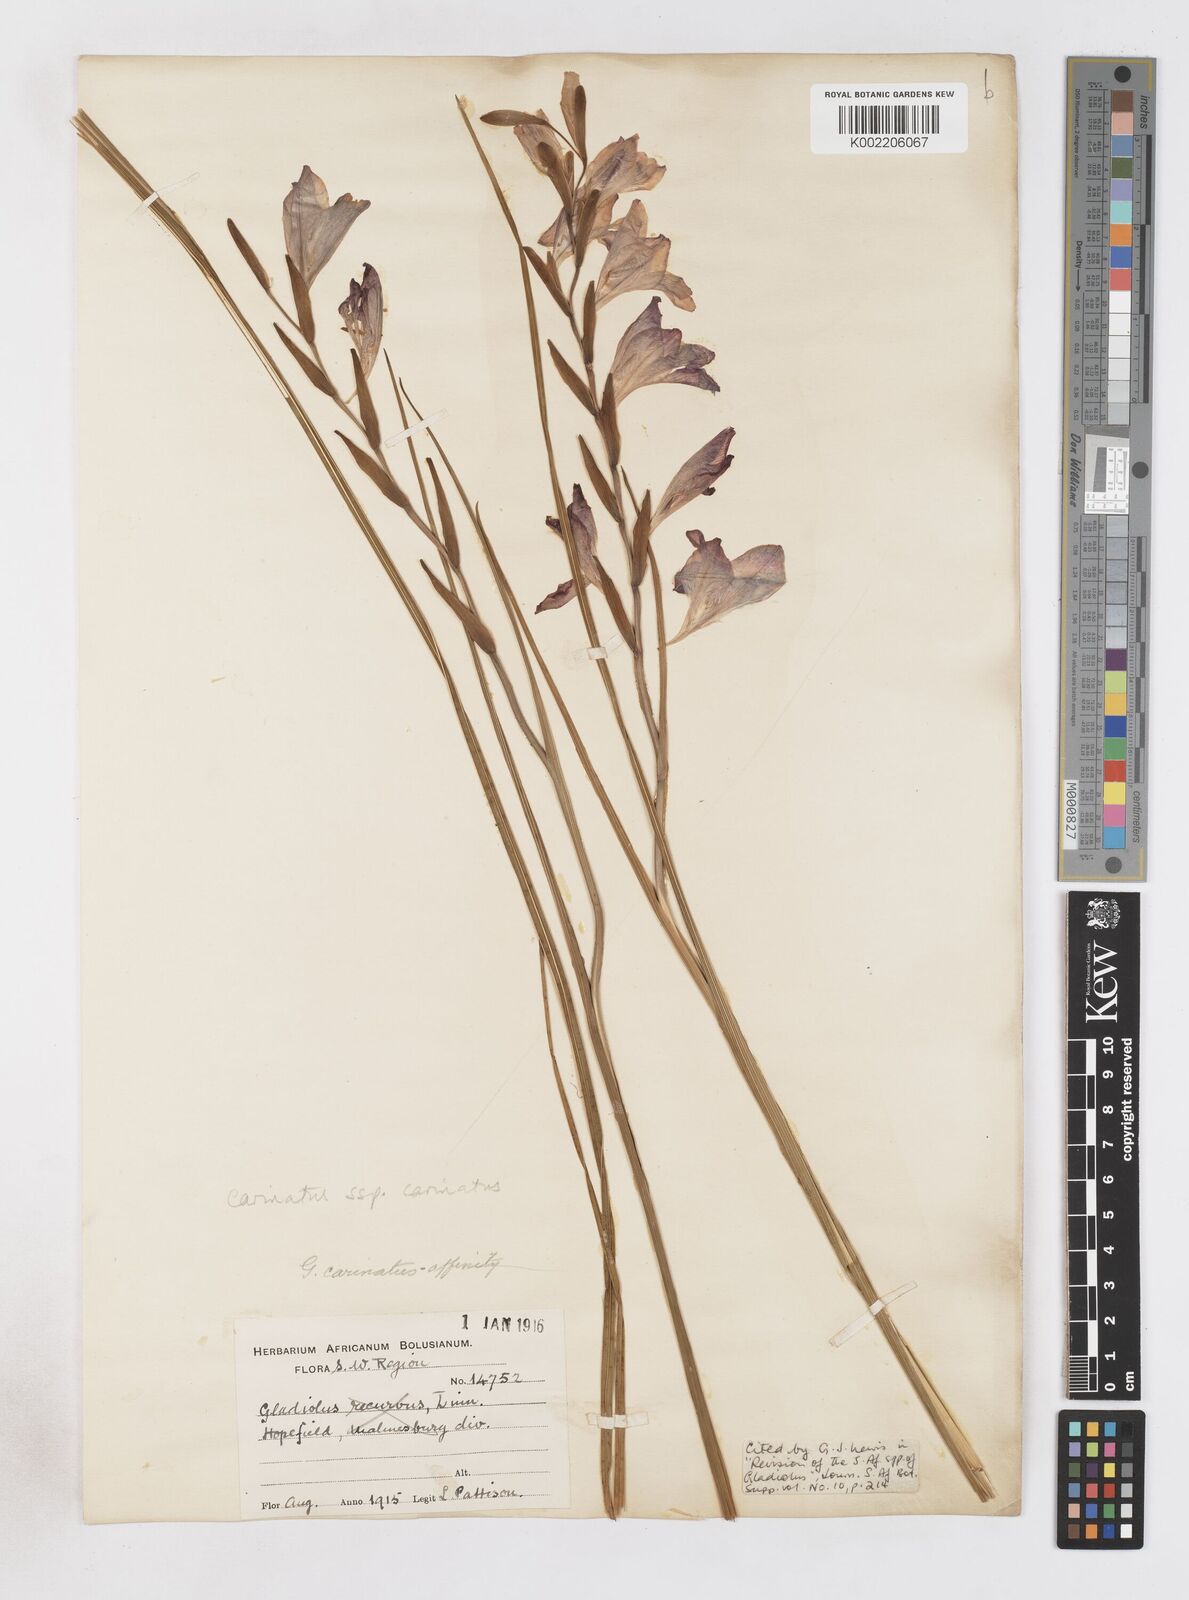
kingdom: Plantae
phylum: Tracheophyta
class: Liliopsida
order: Asparagales
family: Iridaceae
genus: Gladiolus
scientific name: Gladiolus carinatus
